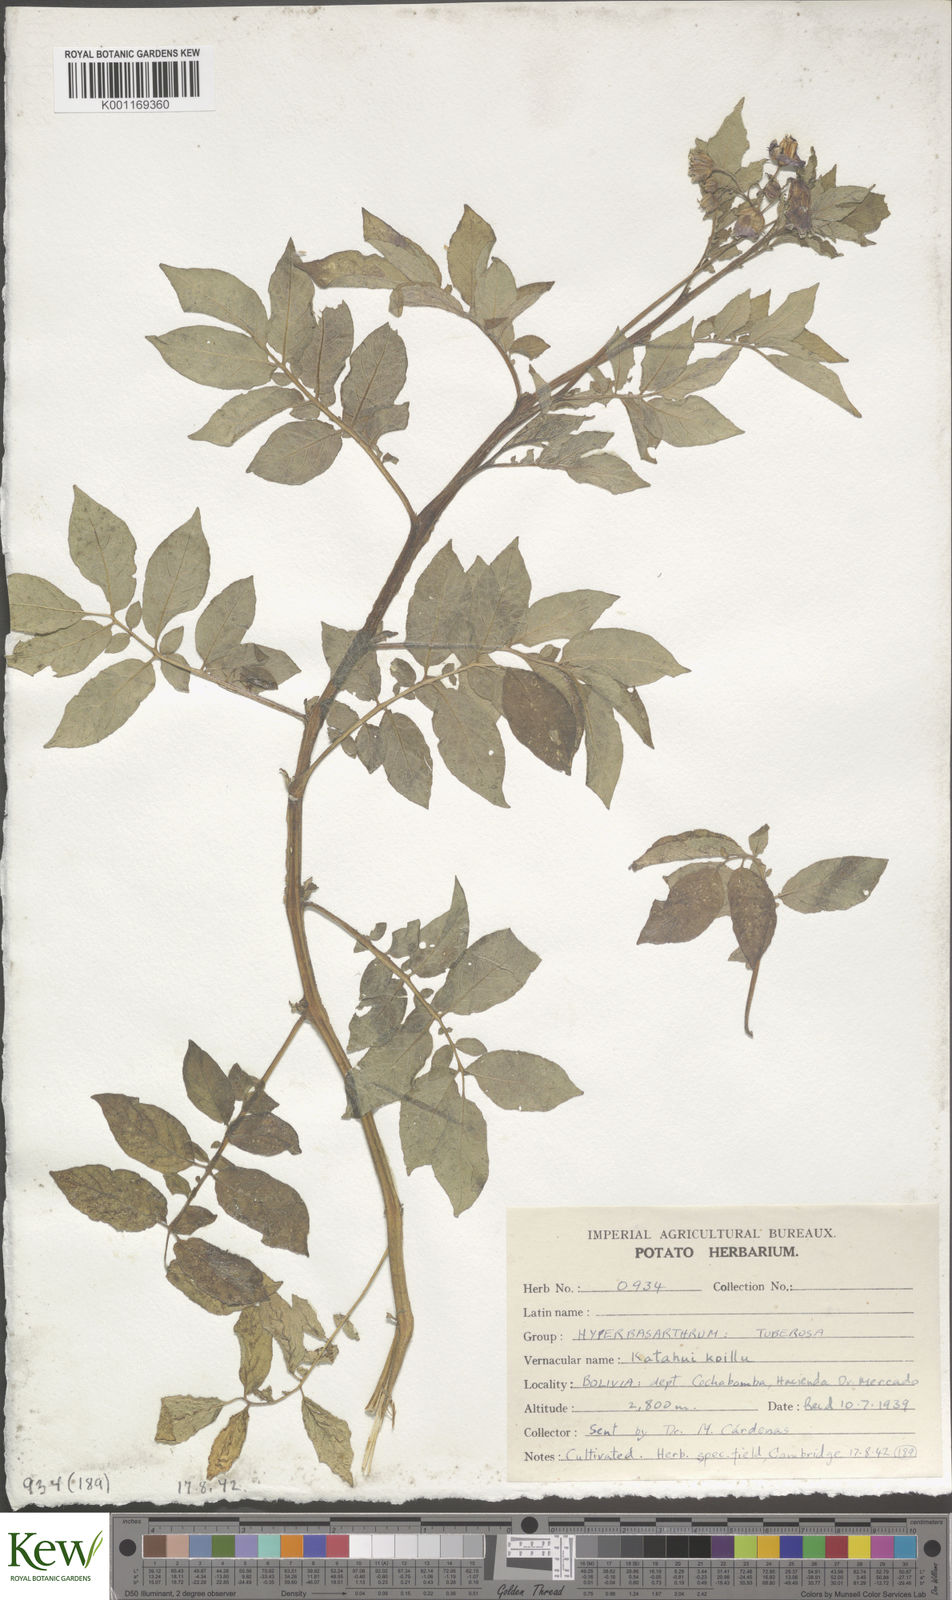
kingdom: Plantae
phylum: Tracheophyta
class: Magnoliopsida
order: Solanales
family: Solanaceae
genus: Solanum
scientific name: Solanum chaucha
